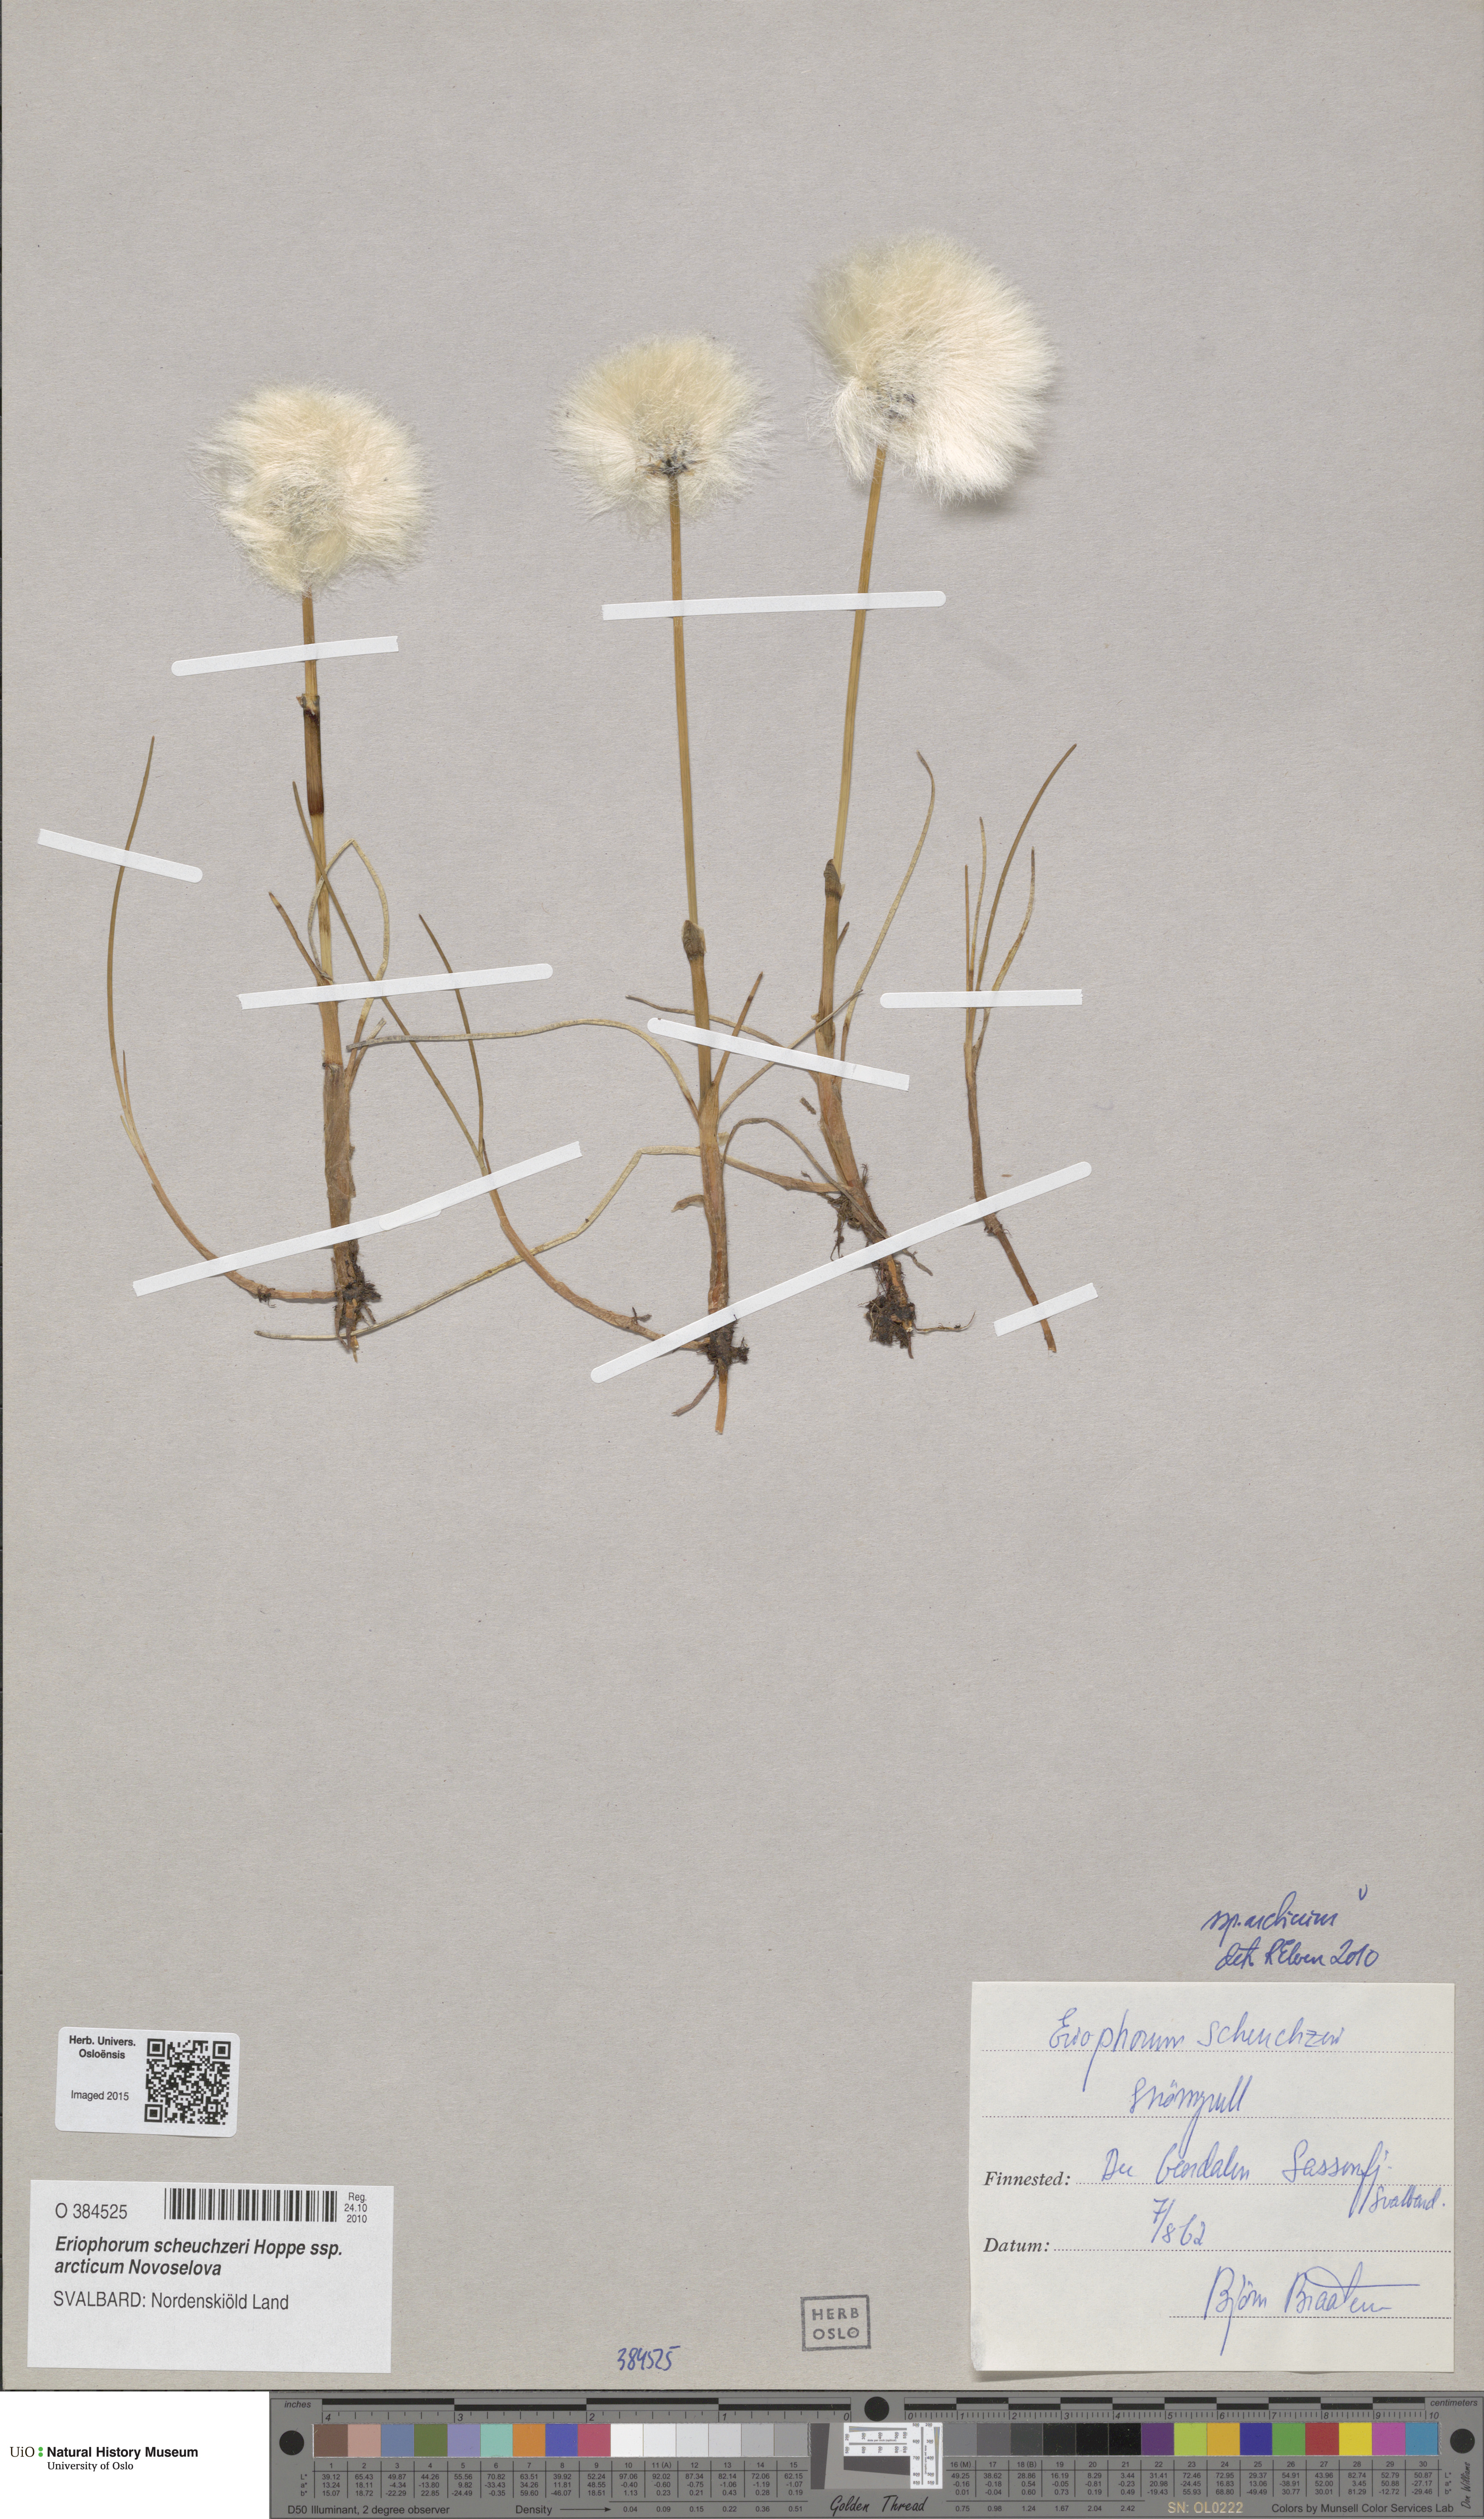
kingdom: Plantae
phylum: Tracheophyta
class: Liliopsida
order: Poales
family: Cyperaceae
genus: Eriophorum
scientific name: Eriophorum scheuchzeri
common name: Scheuchzer's cottongrass
